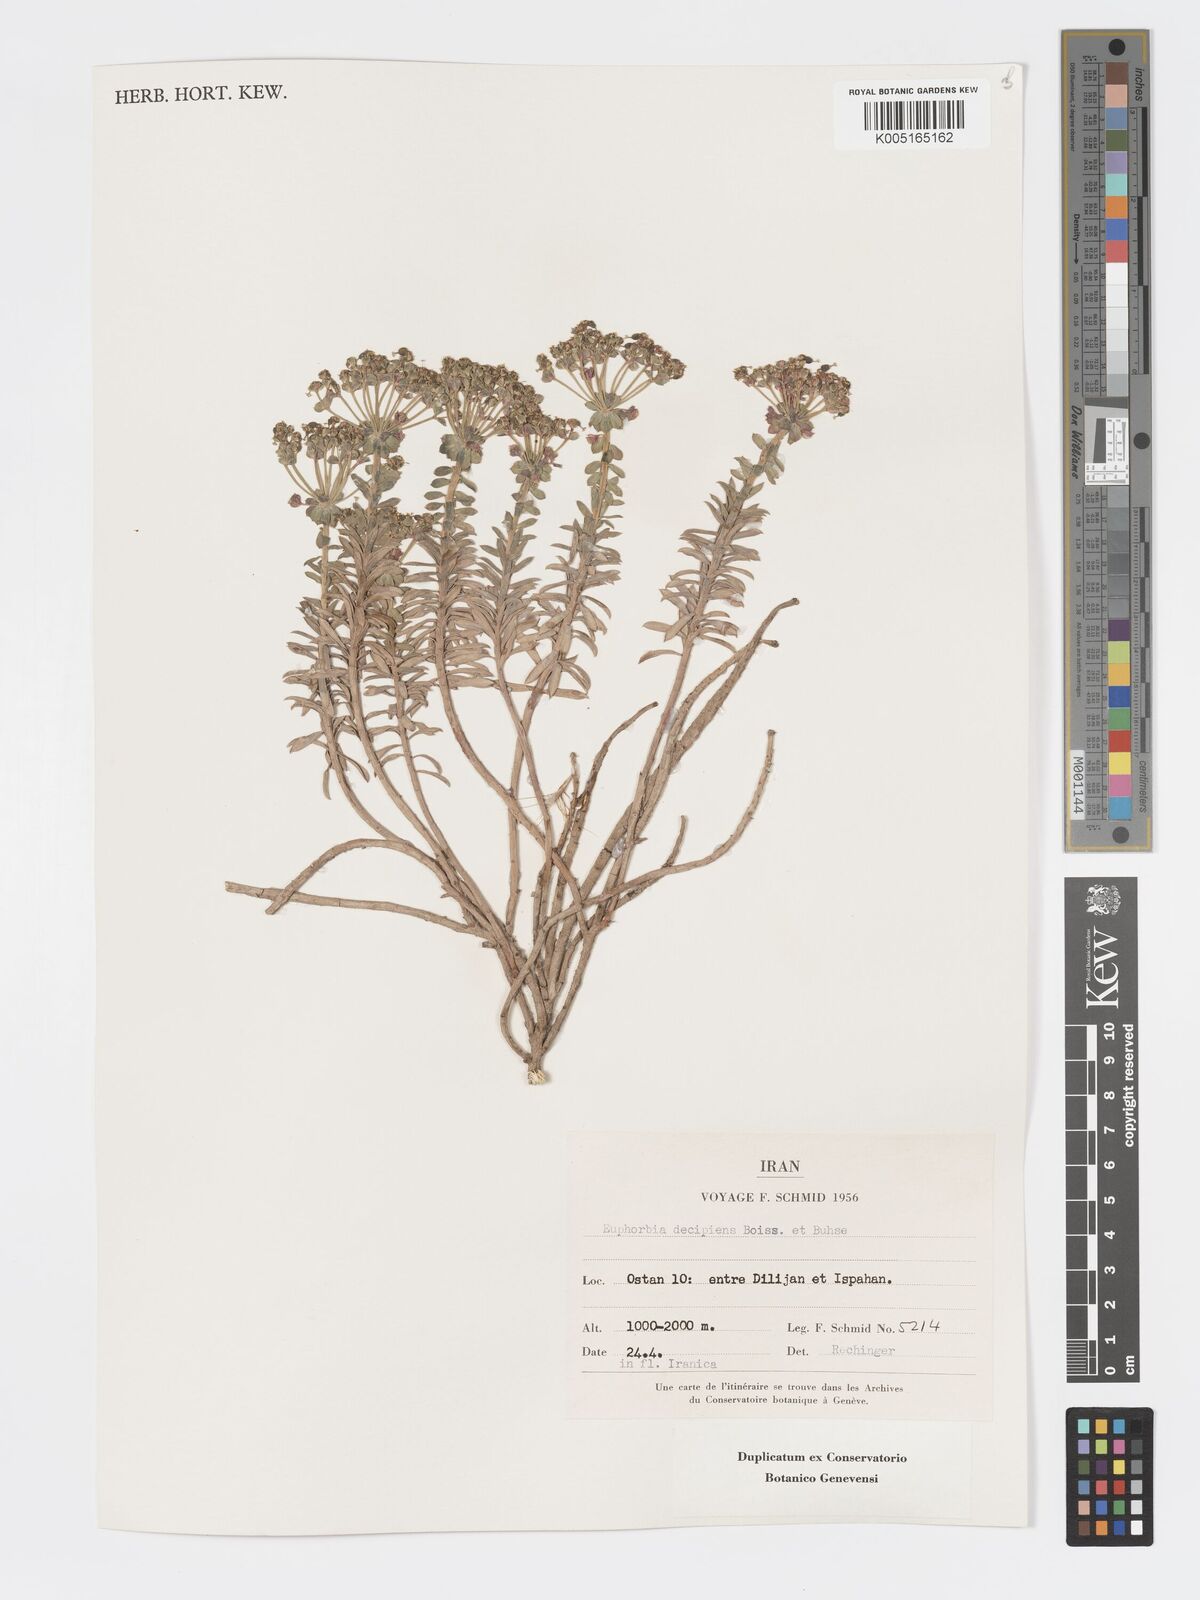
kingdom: Plantae
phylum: Tracheophyta
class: Magnoliopsida
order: Malpighiales
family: Euphorbiaceae
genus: Euphorbia
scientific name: Euphorbia polycaulis
